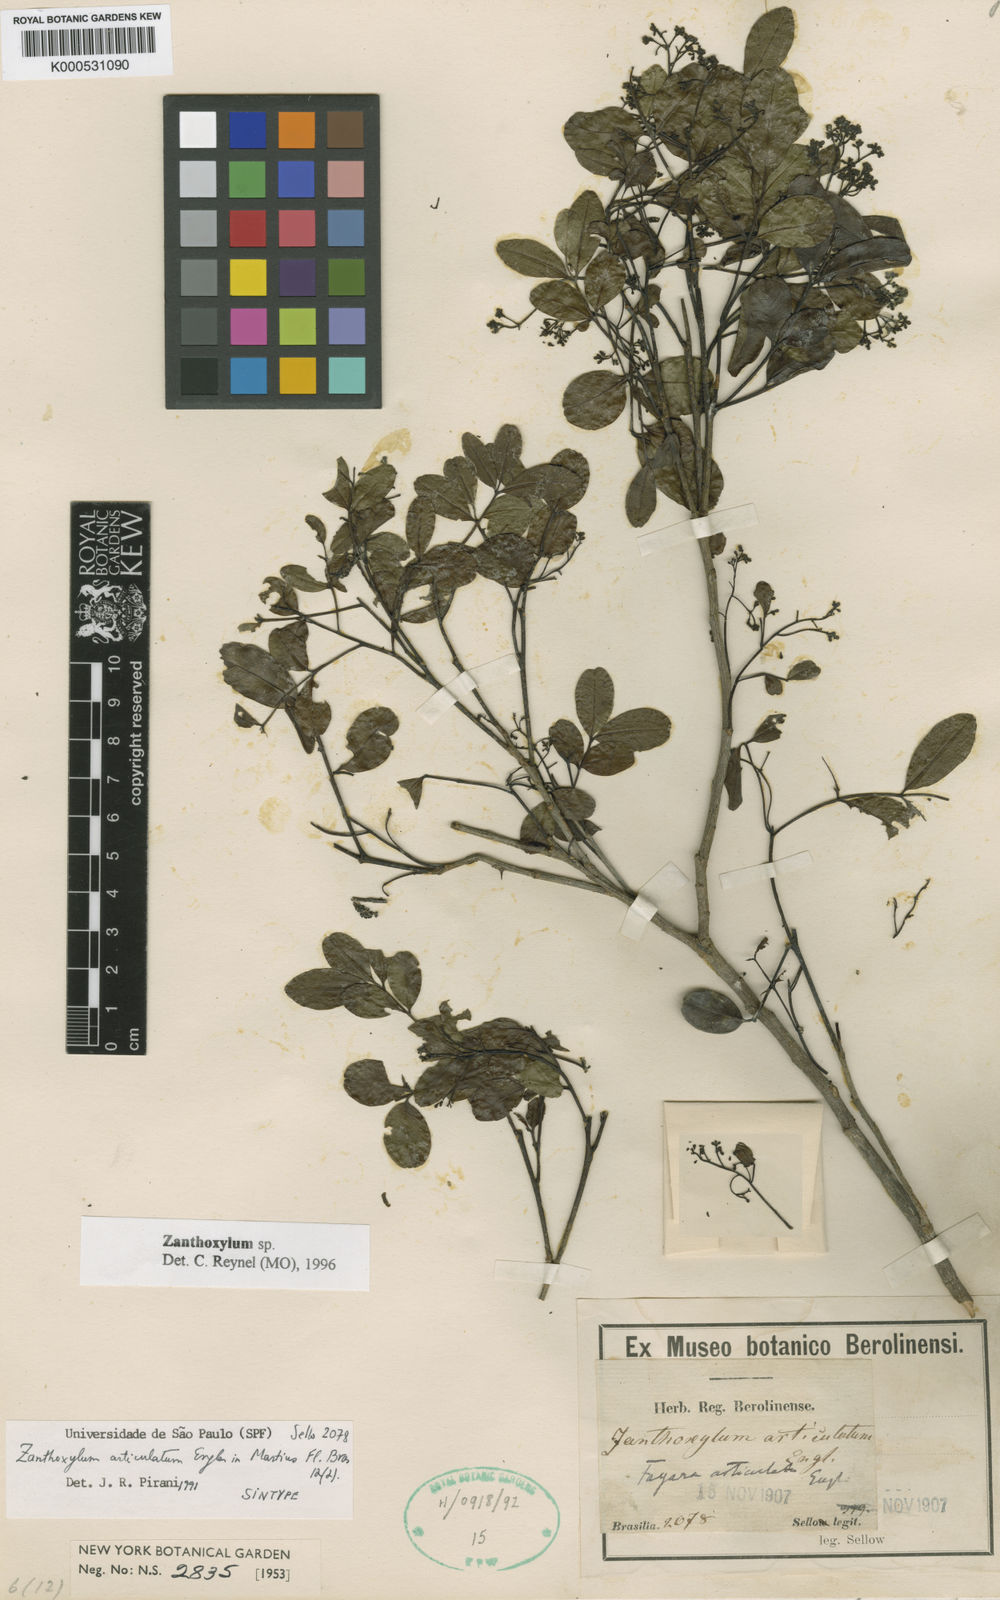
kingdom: Plantae
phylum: Tracheophyta
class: Magnoliopsida
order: Sapindales
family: Rutaceae
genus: Zanthoxylum
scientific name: Zanthoxylum tingoassuiba
